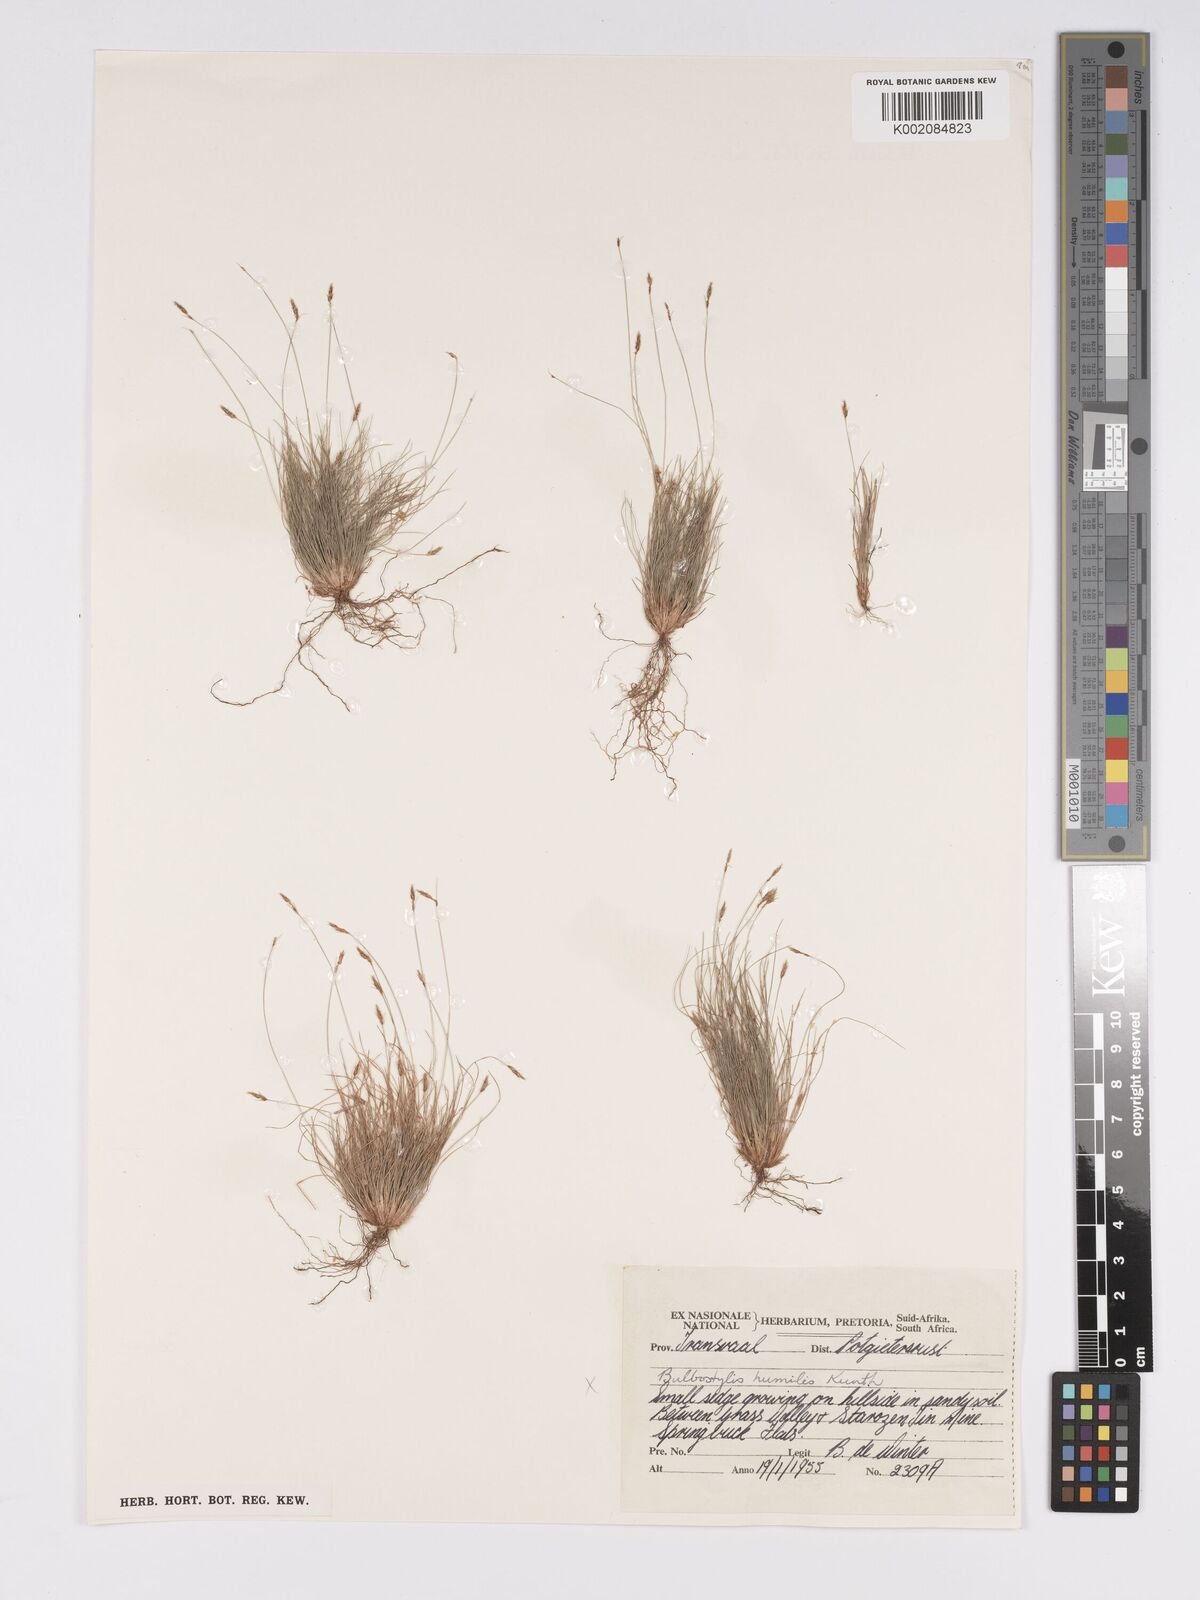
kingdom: Plantae
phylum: Tracheophyta
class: Liliopsida
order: Poales
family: Cyperaceae
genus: Bulbostylis
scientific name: Bulbostylis
